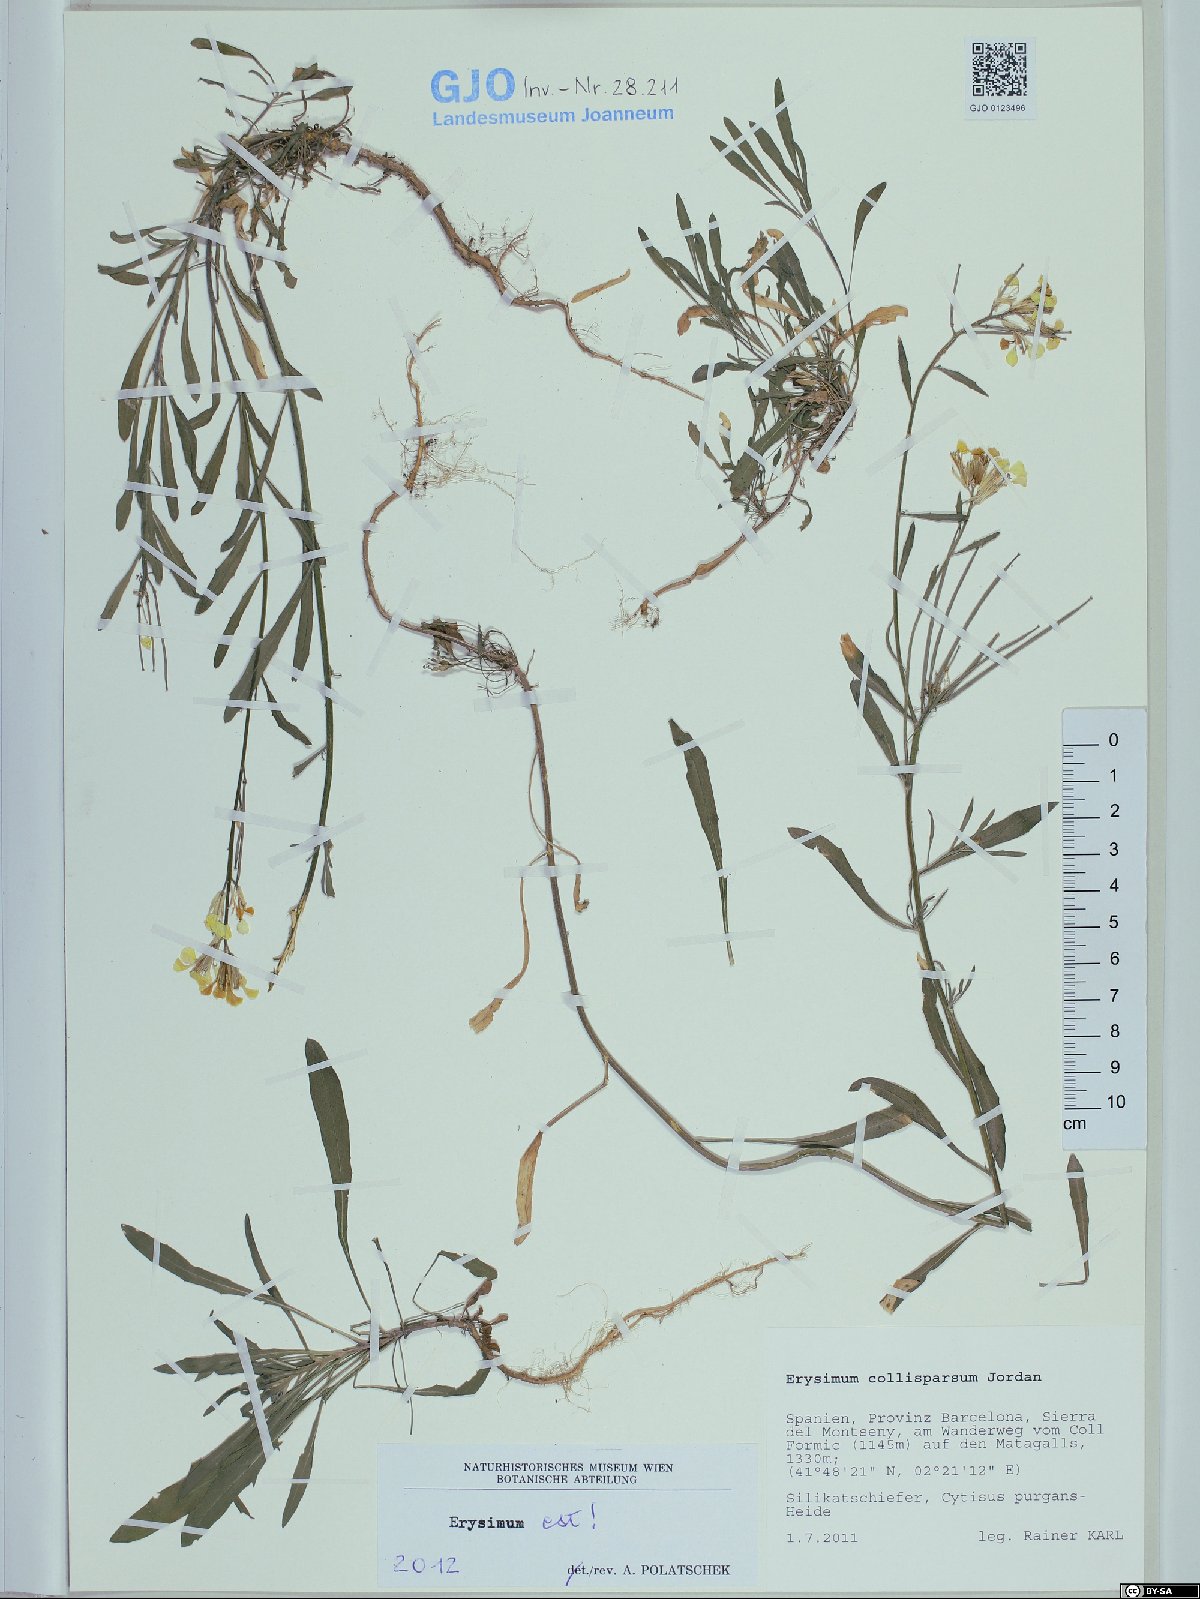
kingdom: Plantae
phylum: Tracheophyta
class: Magnoliopsida
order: Brassicales
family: Brassicaceae
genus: Erysimum
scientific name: Erysimum collisparsum
